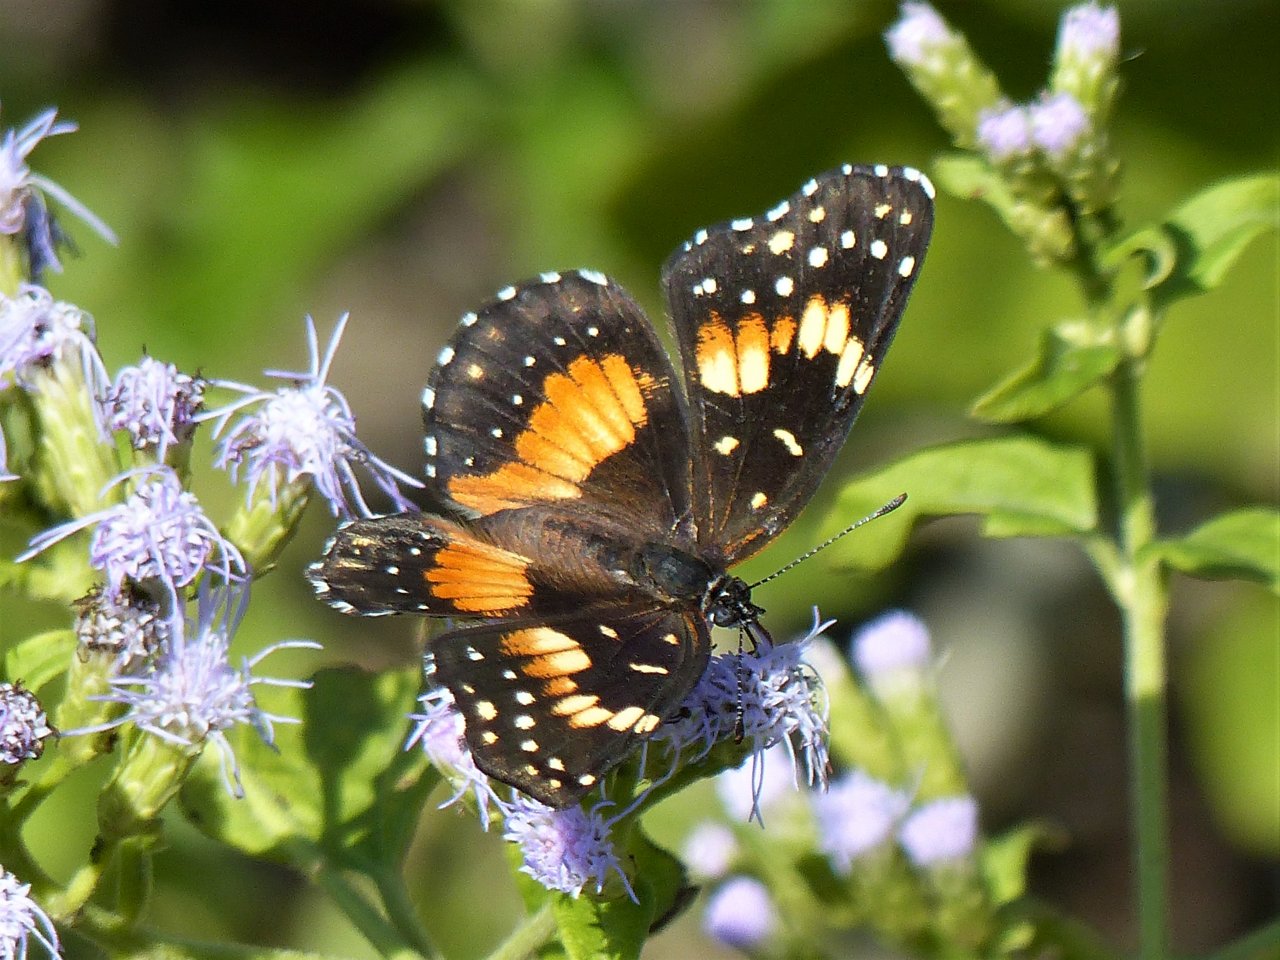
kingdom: Animalia
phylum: Arthropoda
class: Insecta
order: Lepidoptera
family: Nymphalidae
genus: Chlosyne
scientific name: Chlosyne lacinia
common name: Bordered Patch
